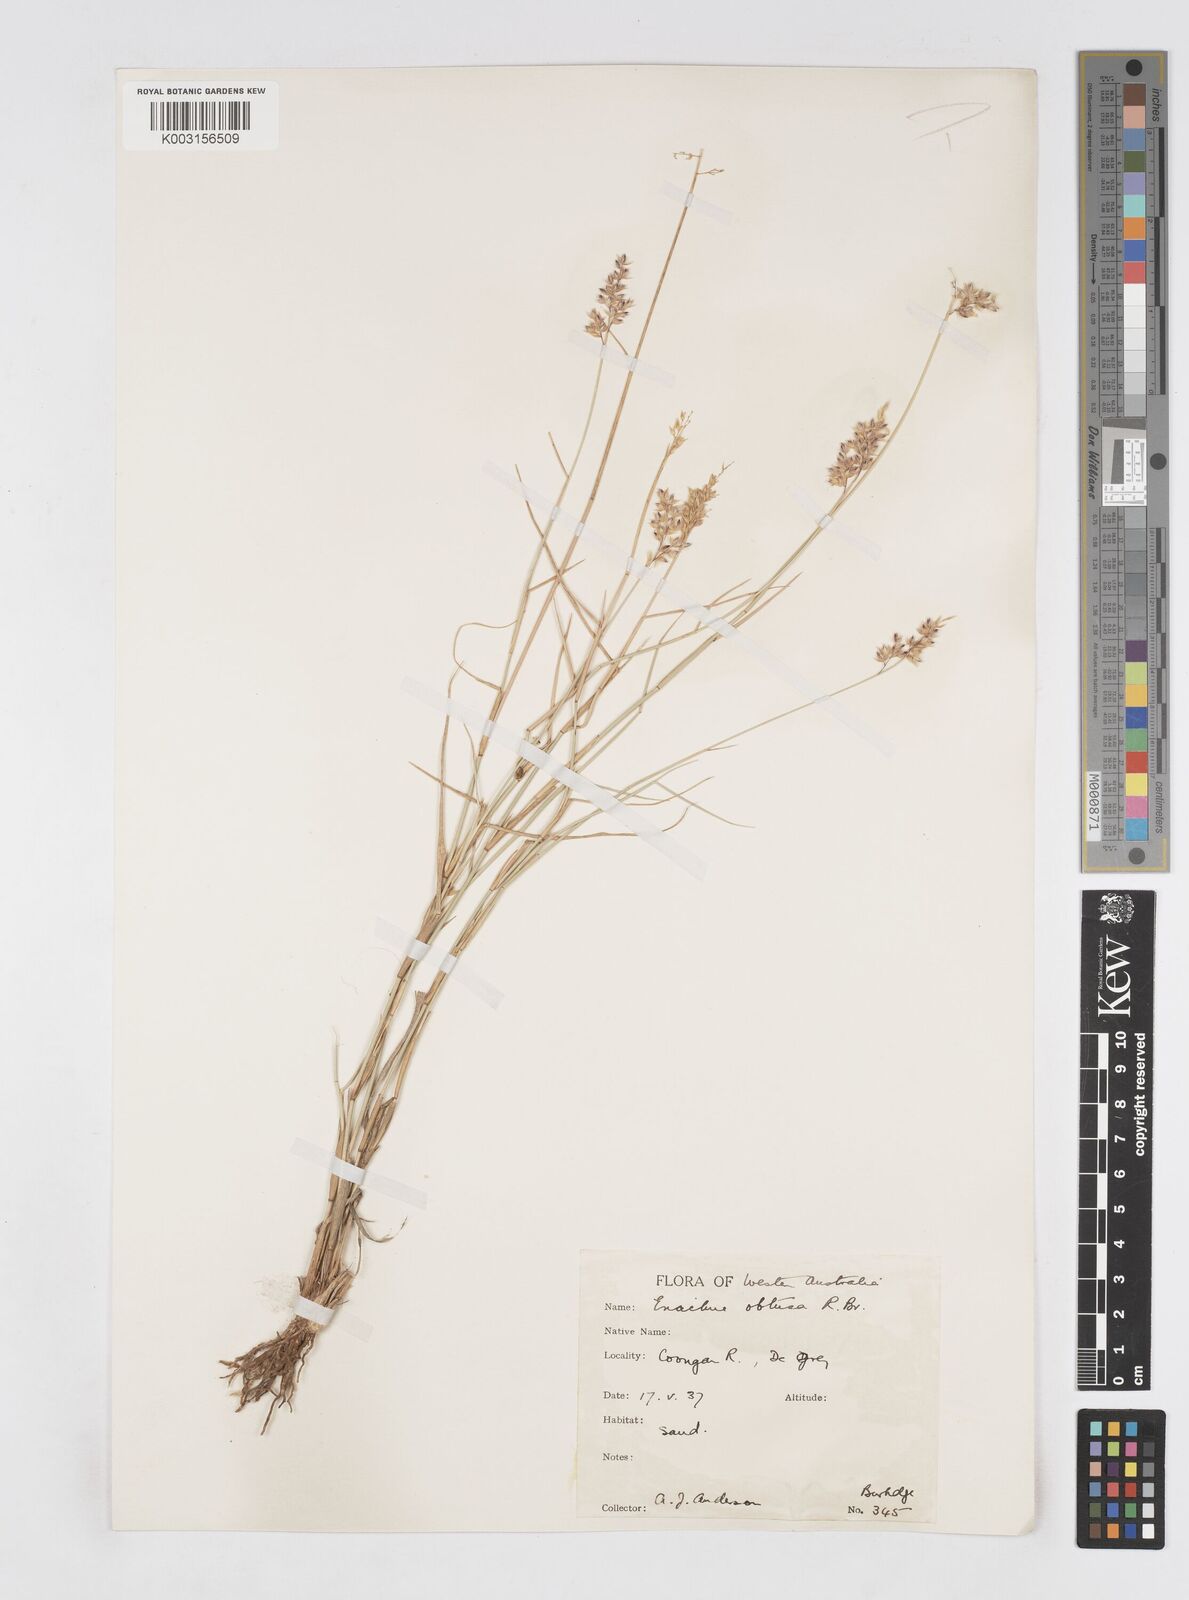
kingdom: Plantae
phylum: Tracheophyta
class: Liliopsida
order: Poales
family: Poaceae
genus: Eriachne
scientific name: Eriachne obtusa
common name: Northern wanderrie grass
